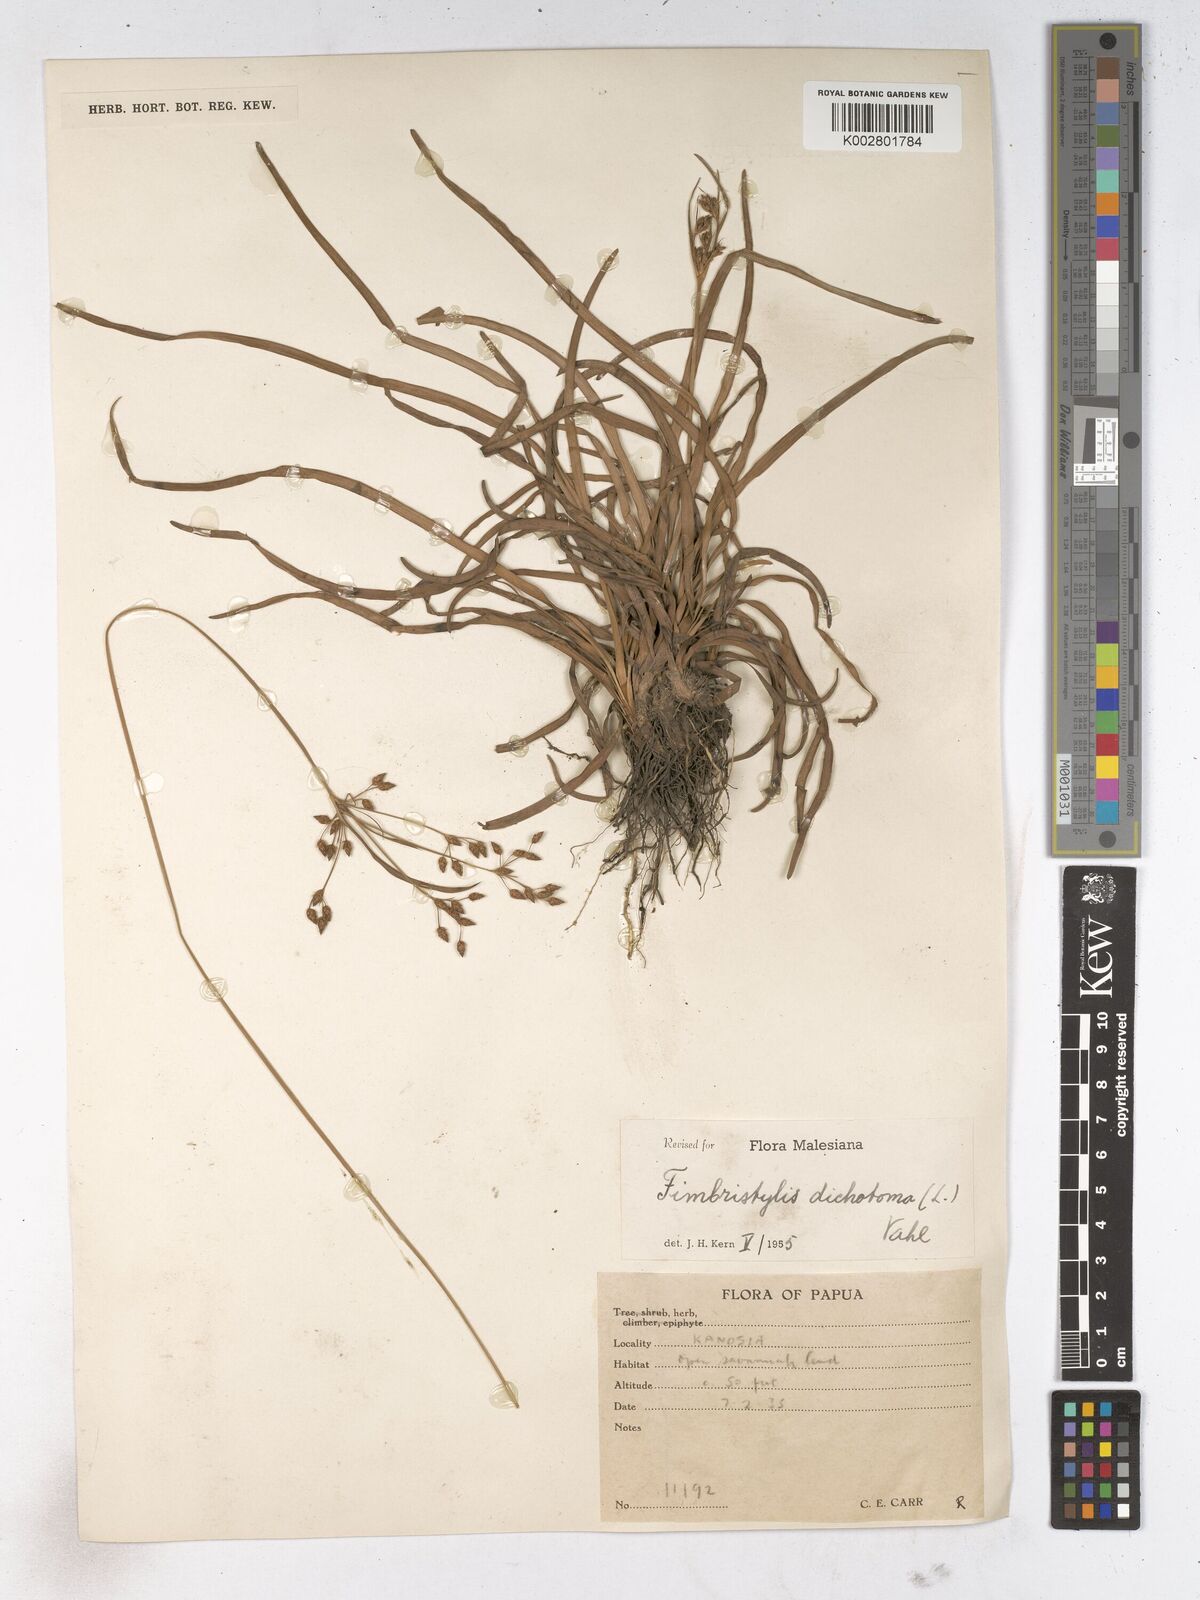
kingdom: Plantae
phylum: Tracheophyta
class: Liliopsida
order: Poales
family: Cyperaceae
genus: Fimbristylis
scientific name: Fimbristylis dichotoma
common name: Forked fimbry
